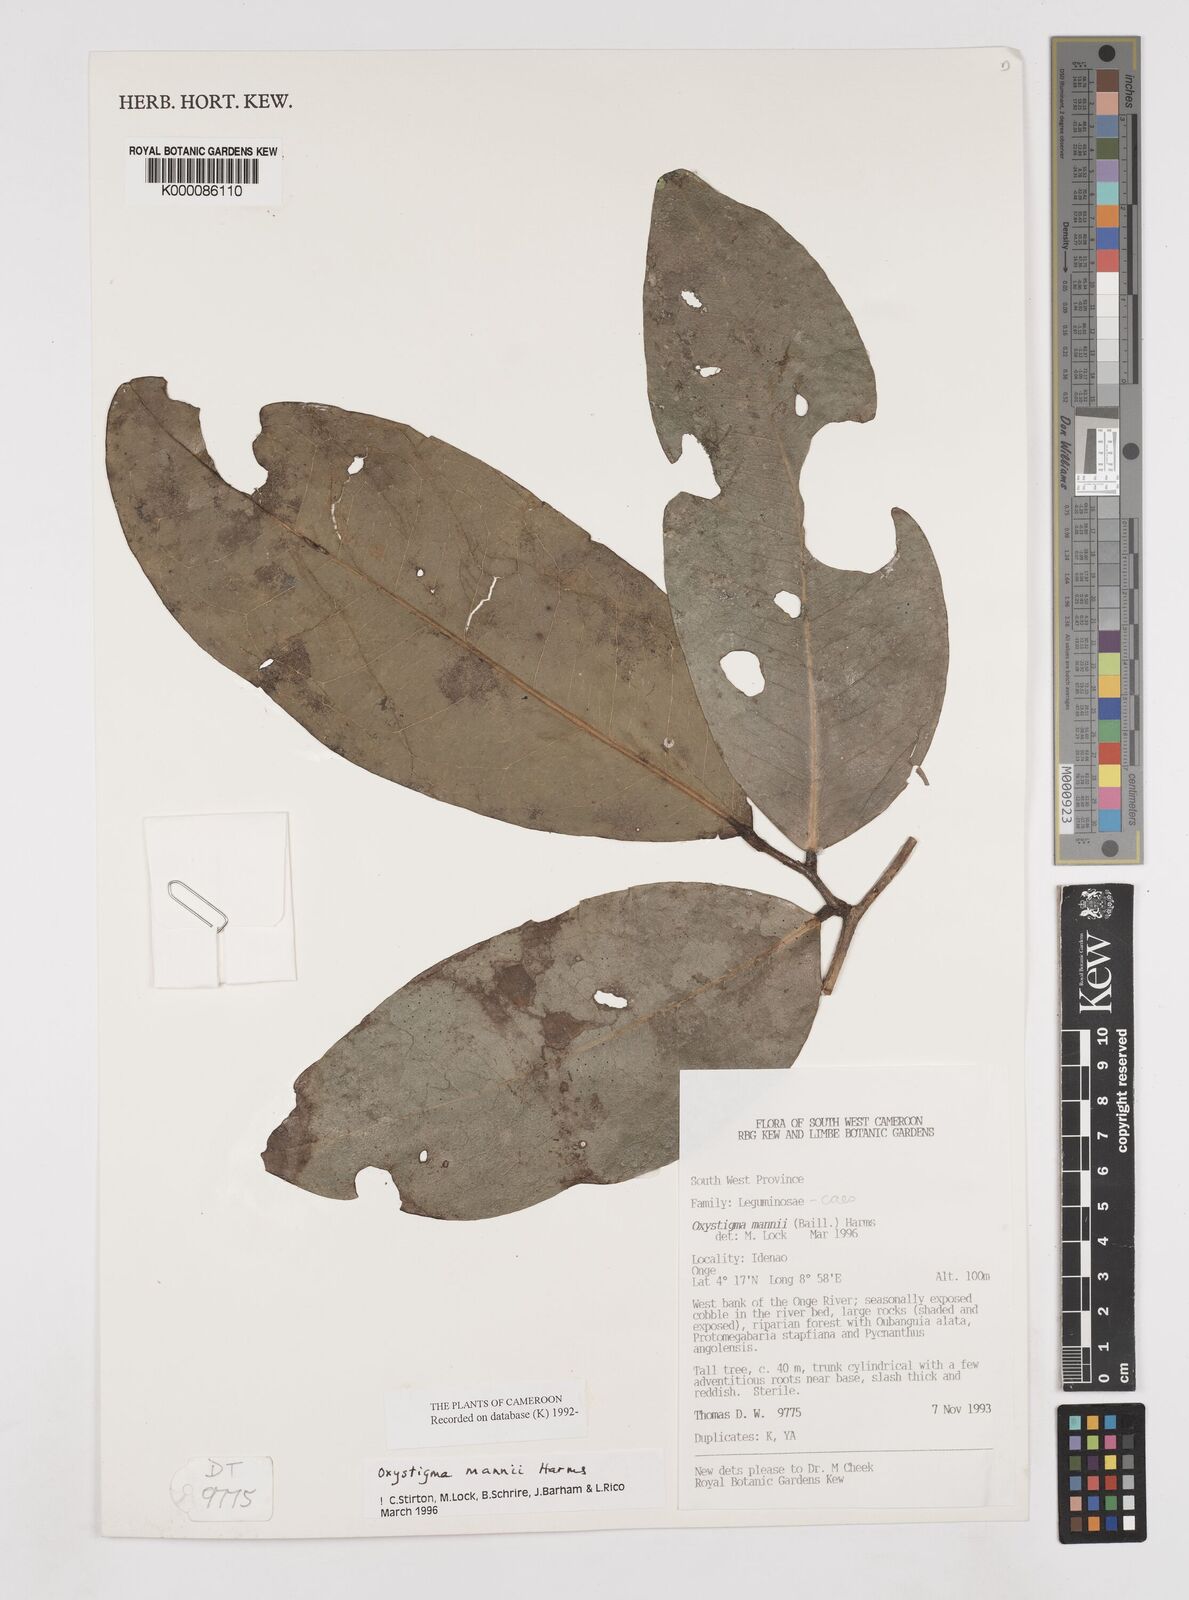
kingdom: Plantae
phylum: Tracheophyta
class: Magnoliopsida
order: Fabales
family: Fabaceae
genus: Prioria
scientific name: Prioria mannii
